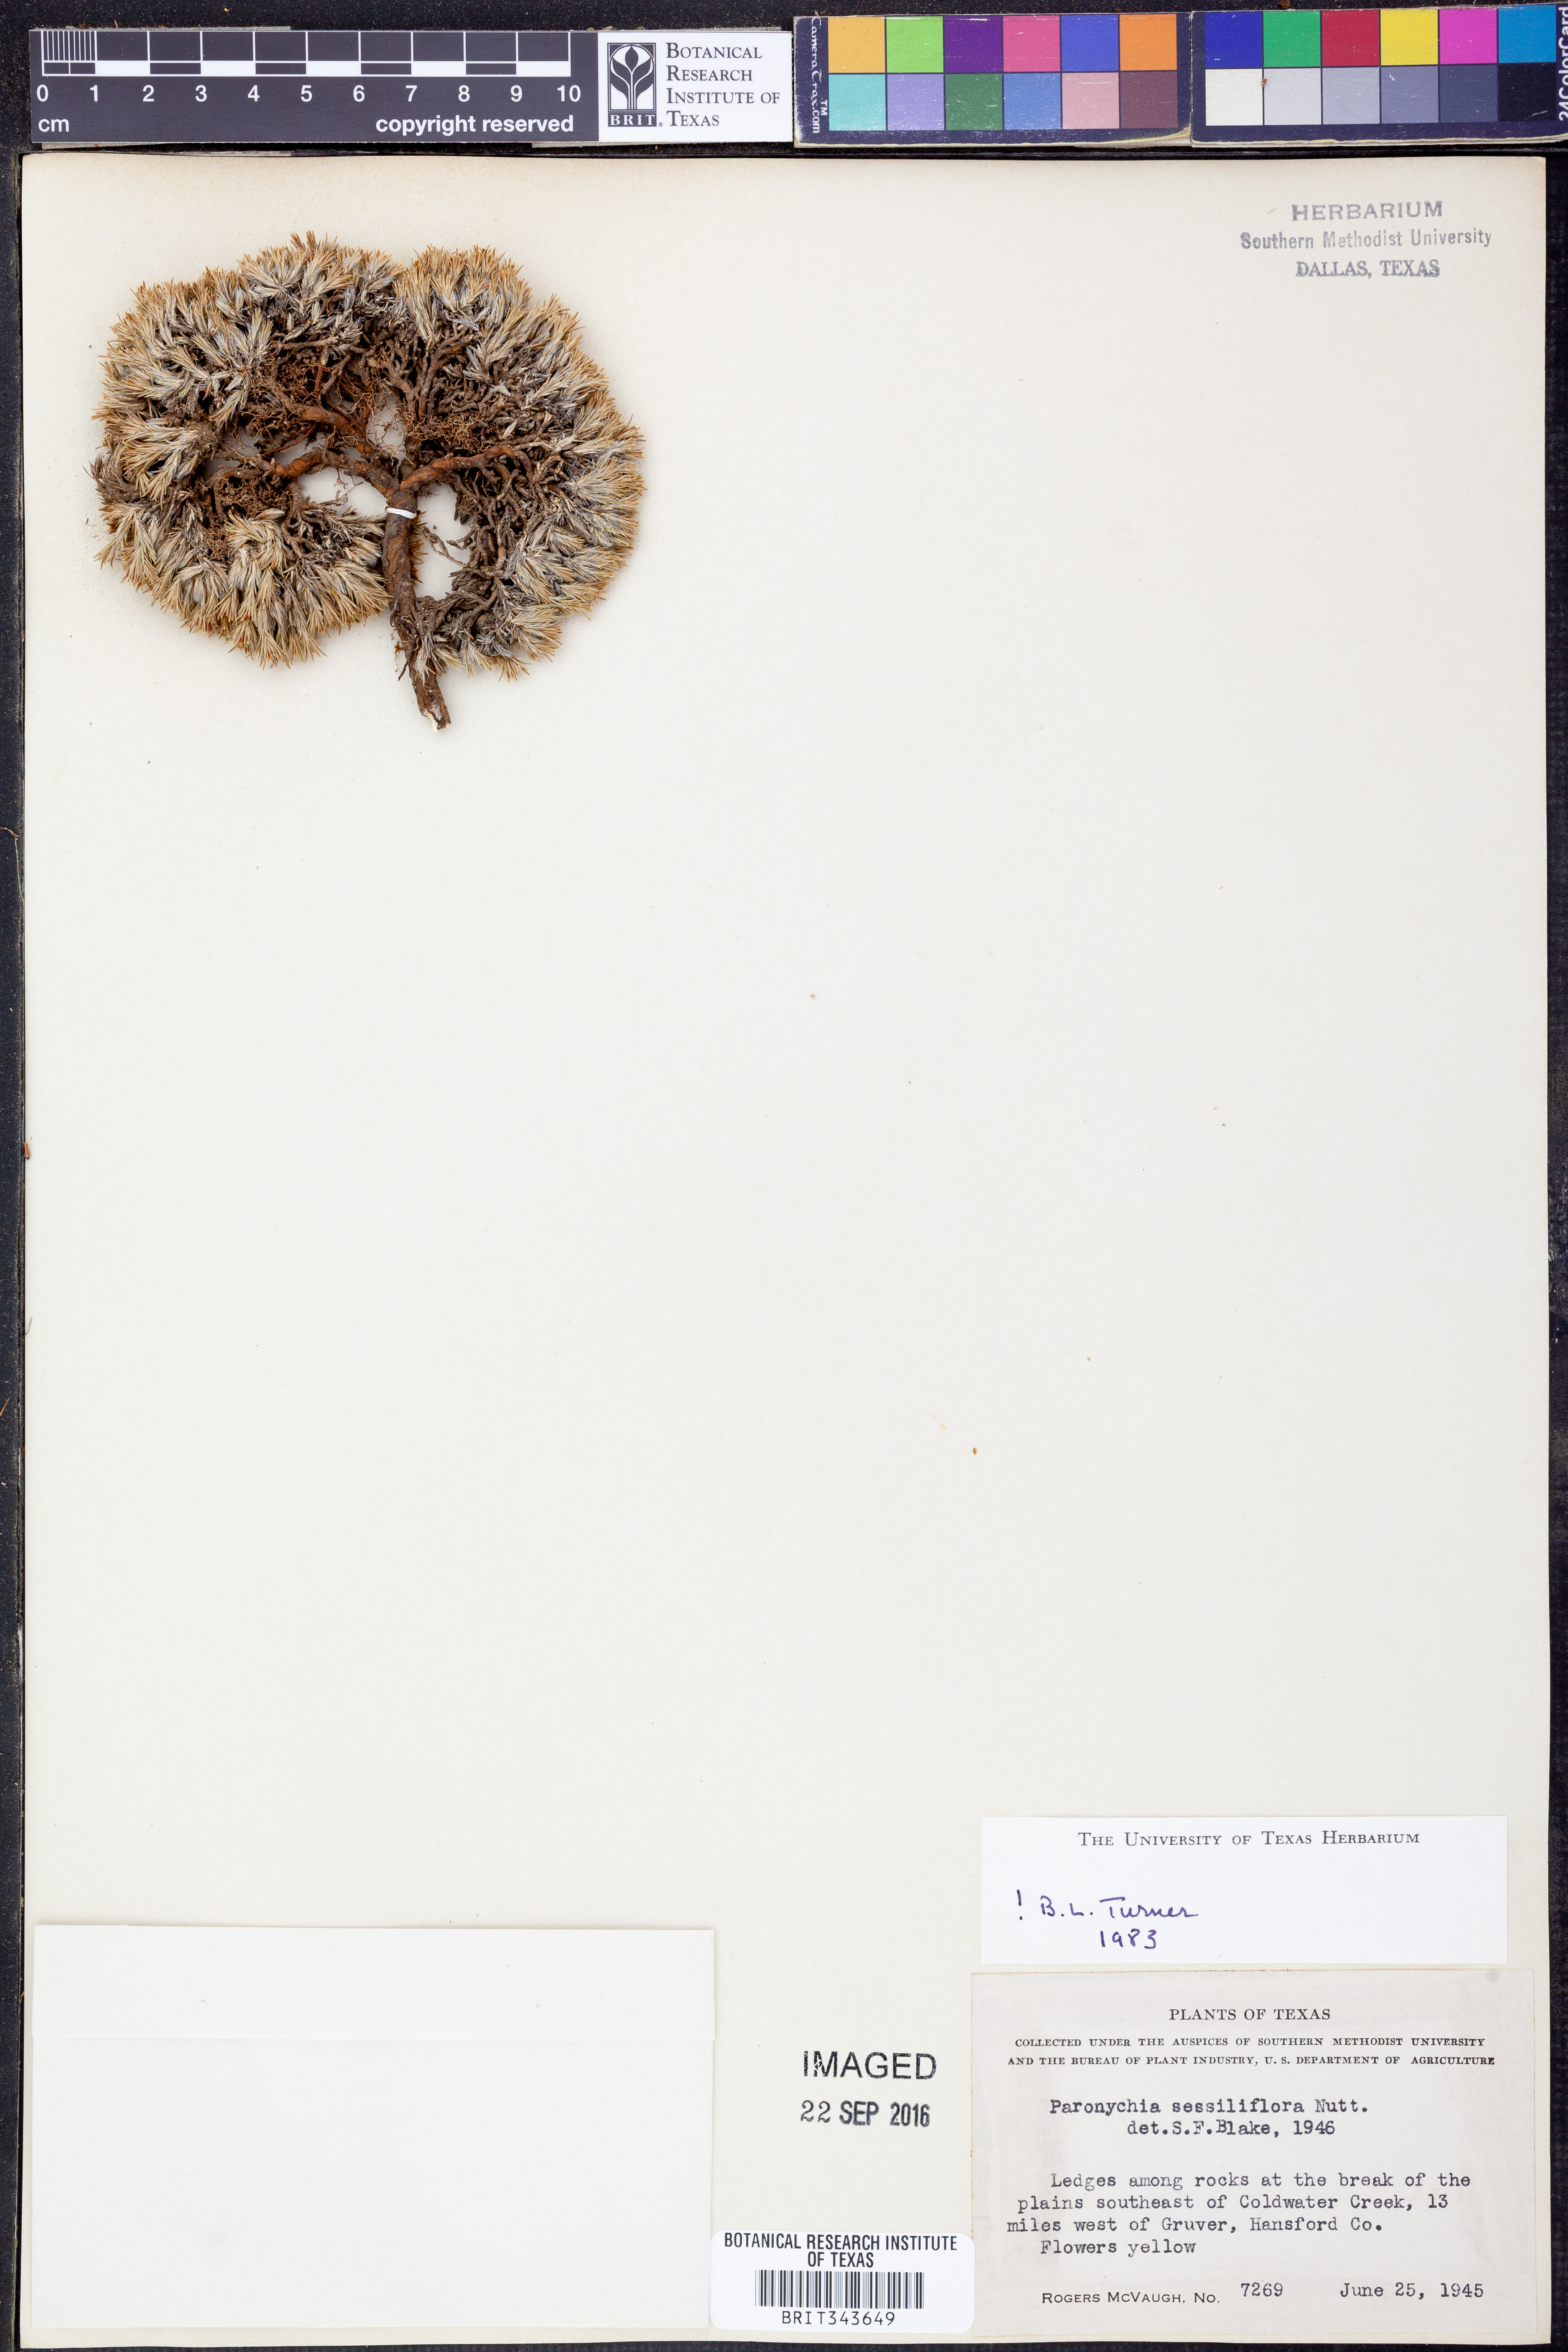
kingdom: Plantae
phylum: Tracheophyta
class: Magnoliopsida
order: Caryophyllales
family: Caryophyllaceae
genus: Paronychia
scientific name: Paronychia sessiliflora
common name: Creeping nailwort
